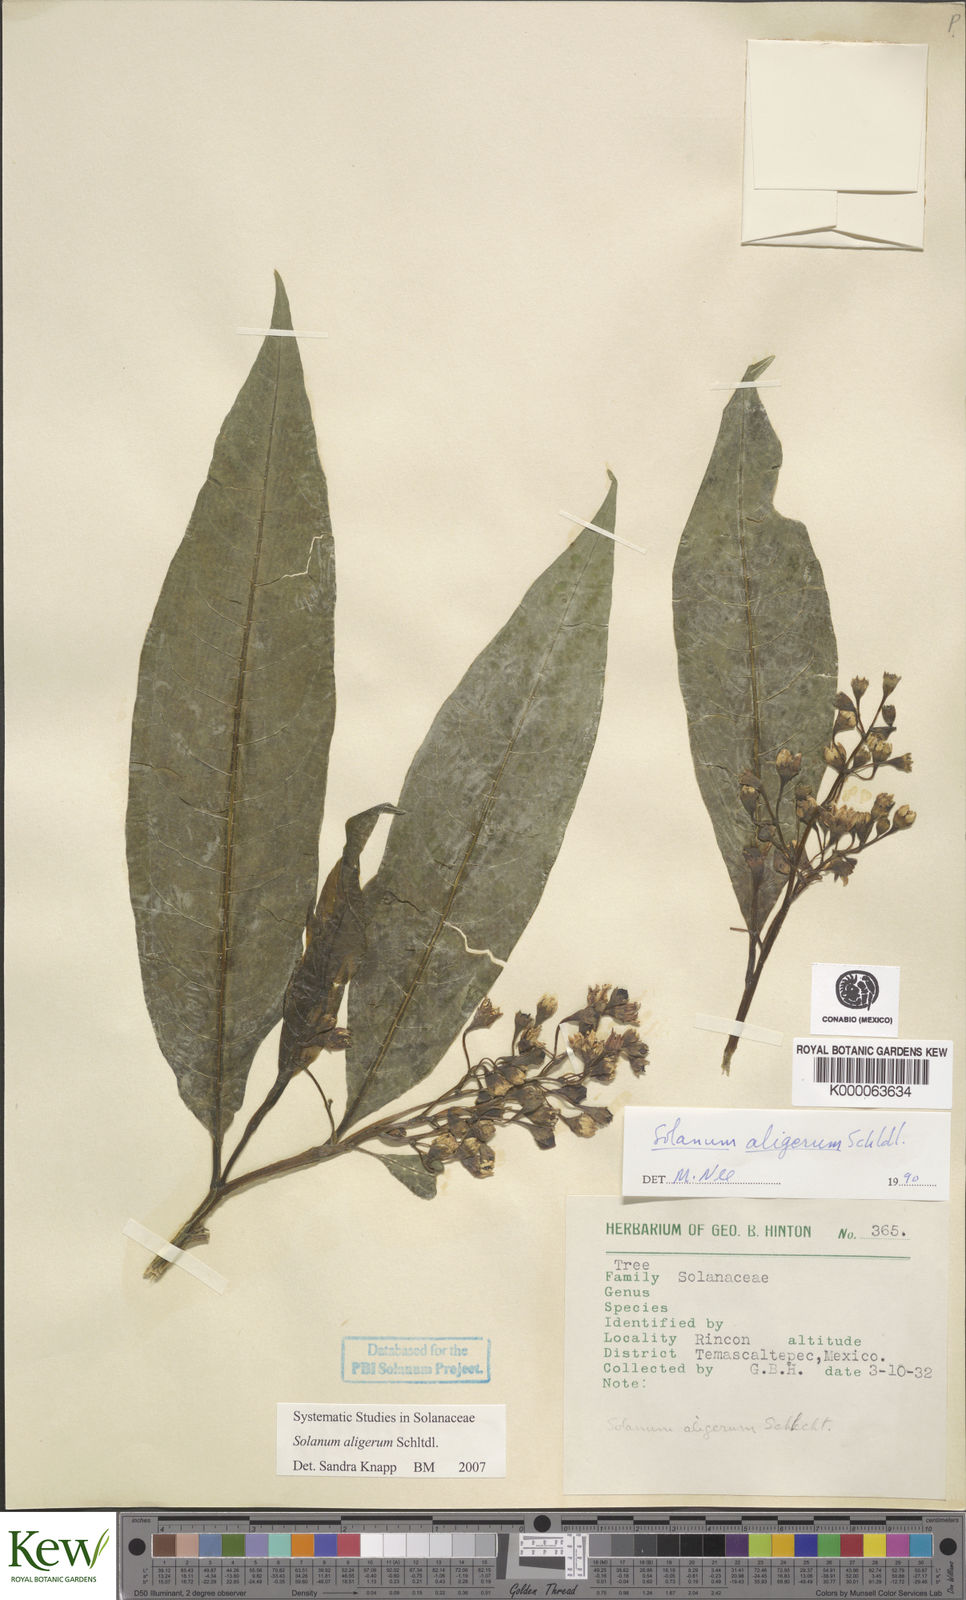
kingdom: Plantae
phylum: Tracheophyta
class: Magnoliopsida
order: Solanales
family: Solanaceae
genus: Solanum
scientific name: Solanum aligerum
